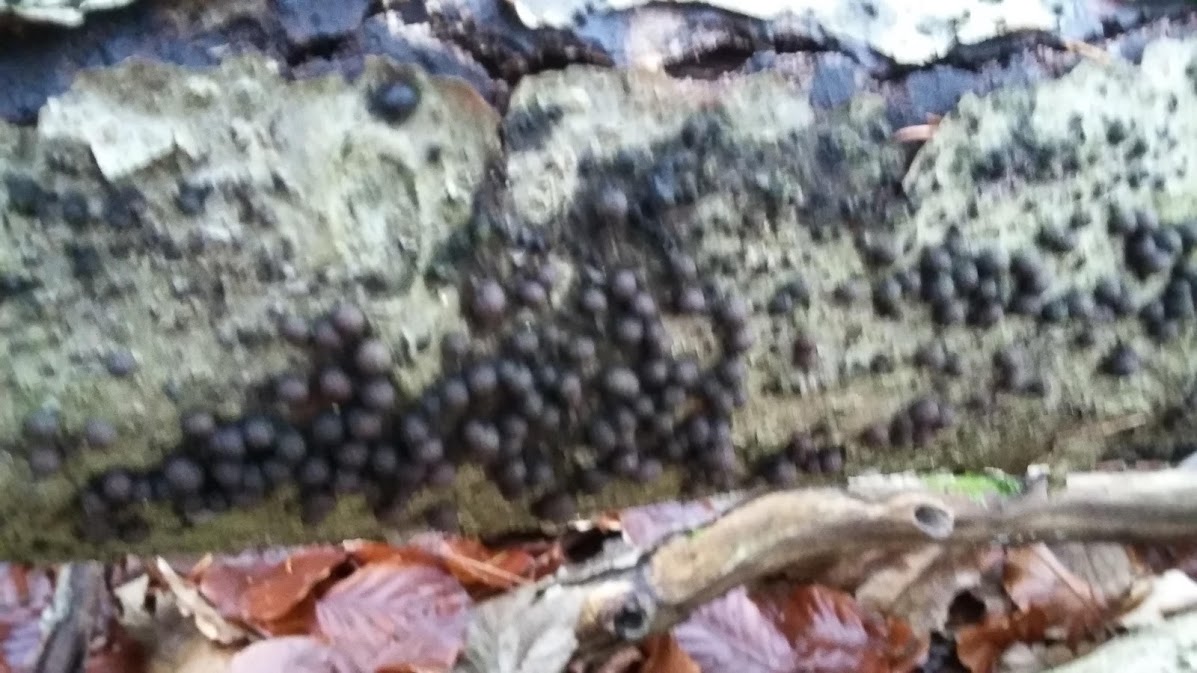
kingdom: Fungi
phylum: Ascomycota
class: Sordariomycetes
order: Xylariales
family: Hypoxylaceae
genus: Hypoxylon
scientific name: Hypoxylon fragiforme
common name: kuljordbær
